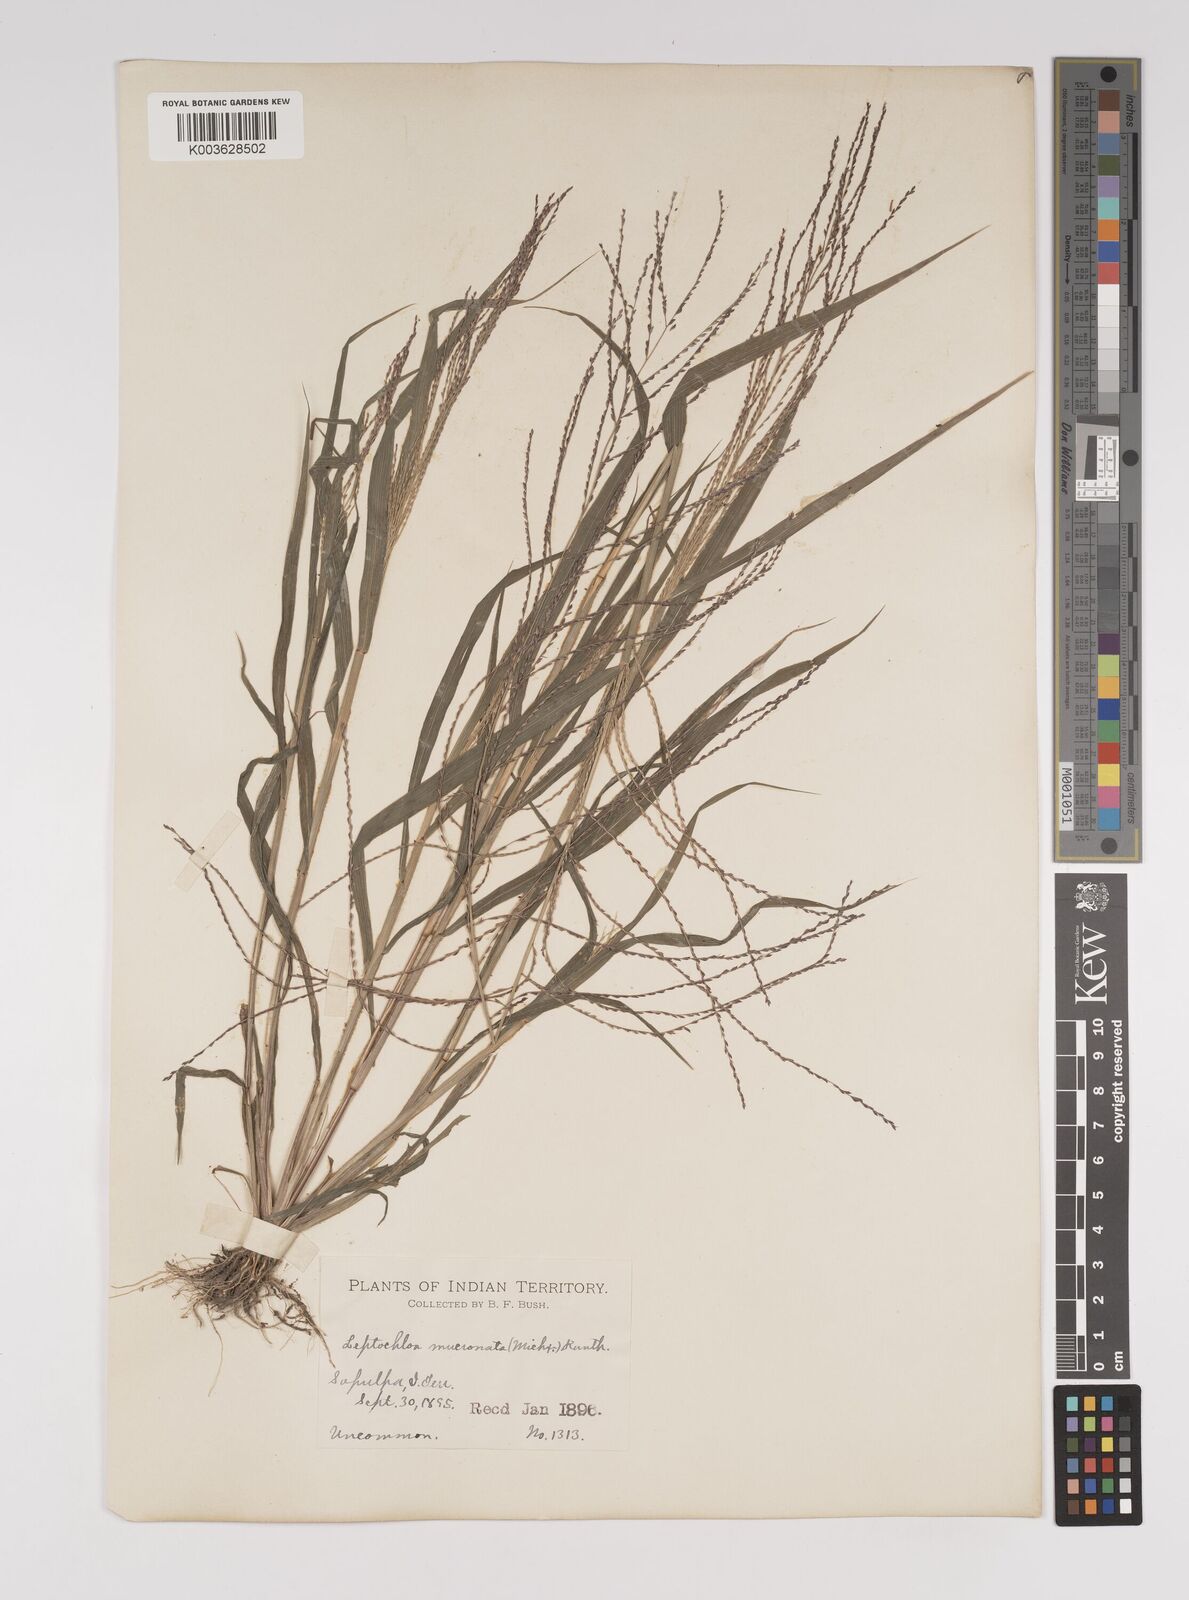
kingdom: Plantae
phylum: Tracheophyta
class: Liliopsida
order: Poales
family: Poaceae
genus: Leptochloa
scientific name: Leptochloa panicea
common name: Mucronate sprangletop
